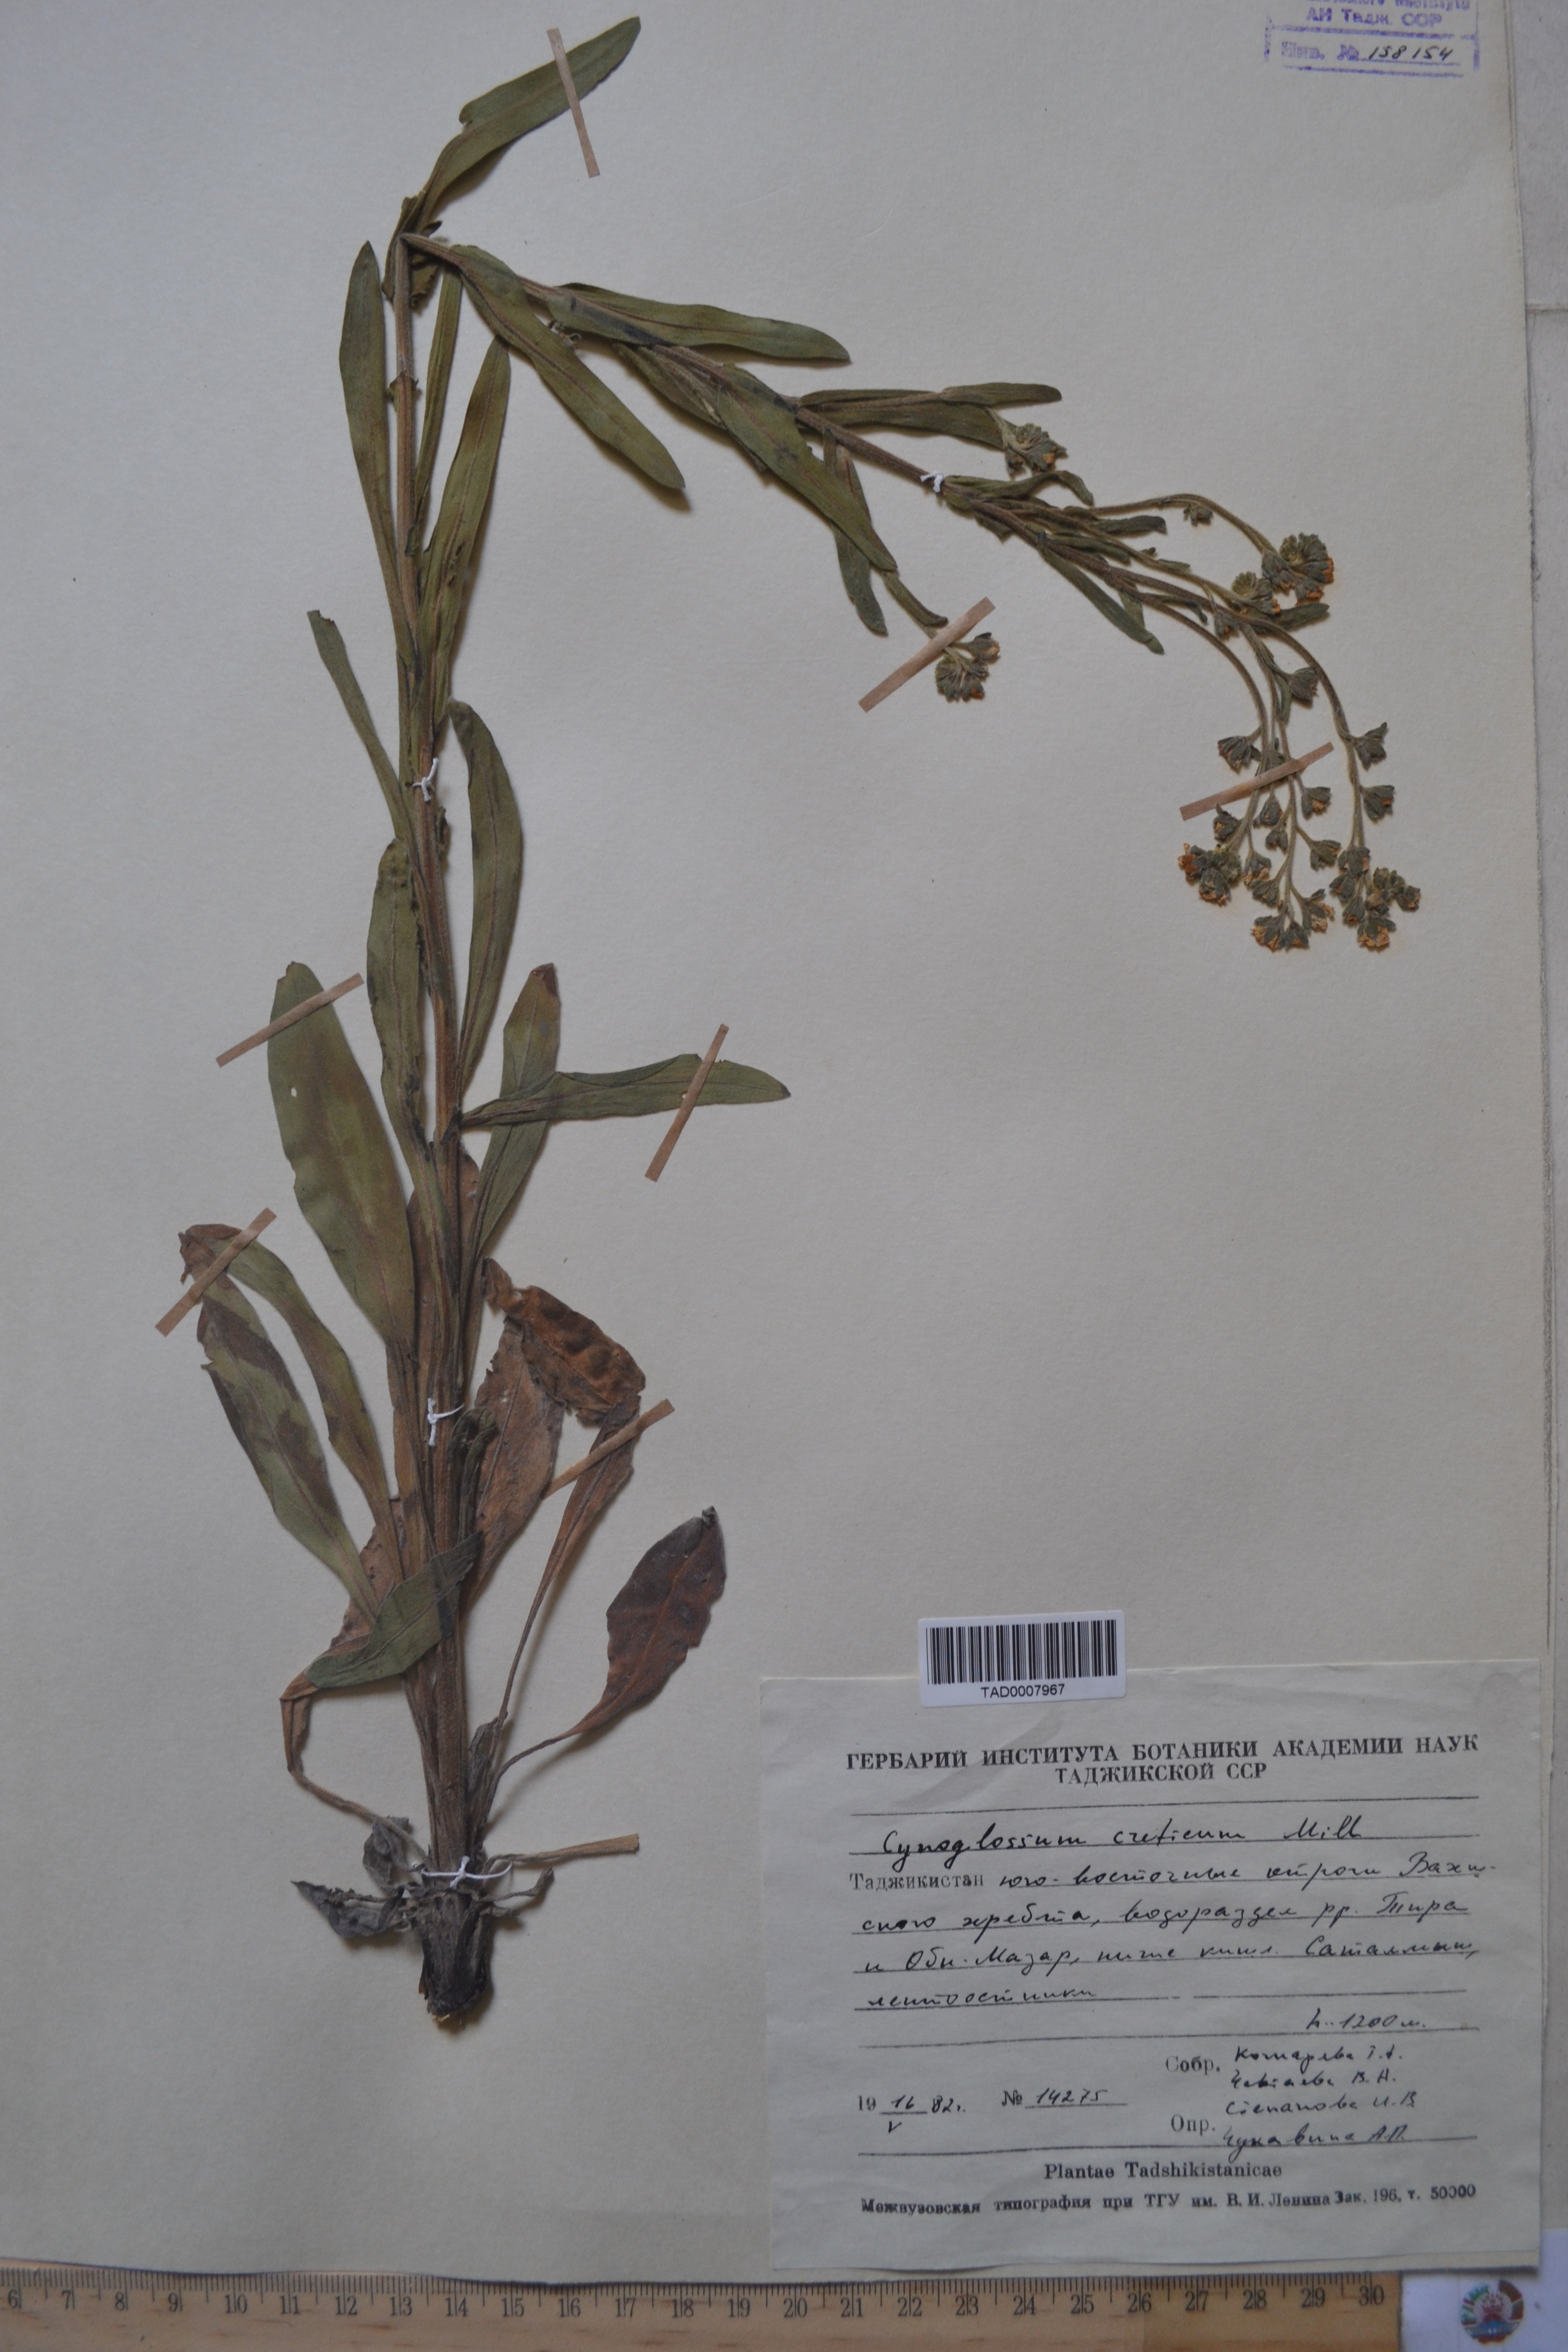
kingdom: Plantae
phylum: Tracheophyta
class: Magnoliopsida
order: Boraginales
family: Boraginaceae
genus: Cynoglossum
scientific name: Cynoglossum creticum
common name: Blue hound's tongue
